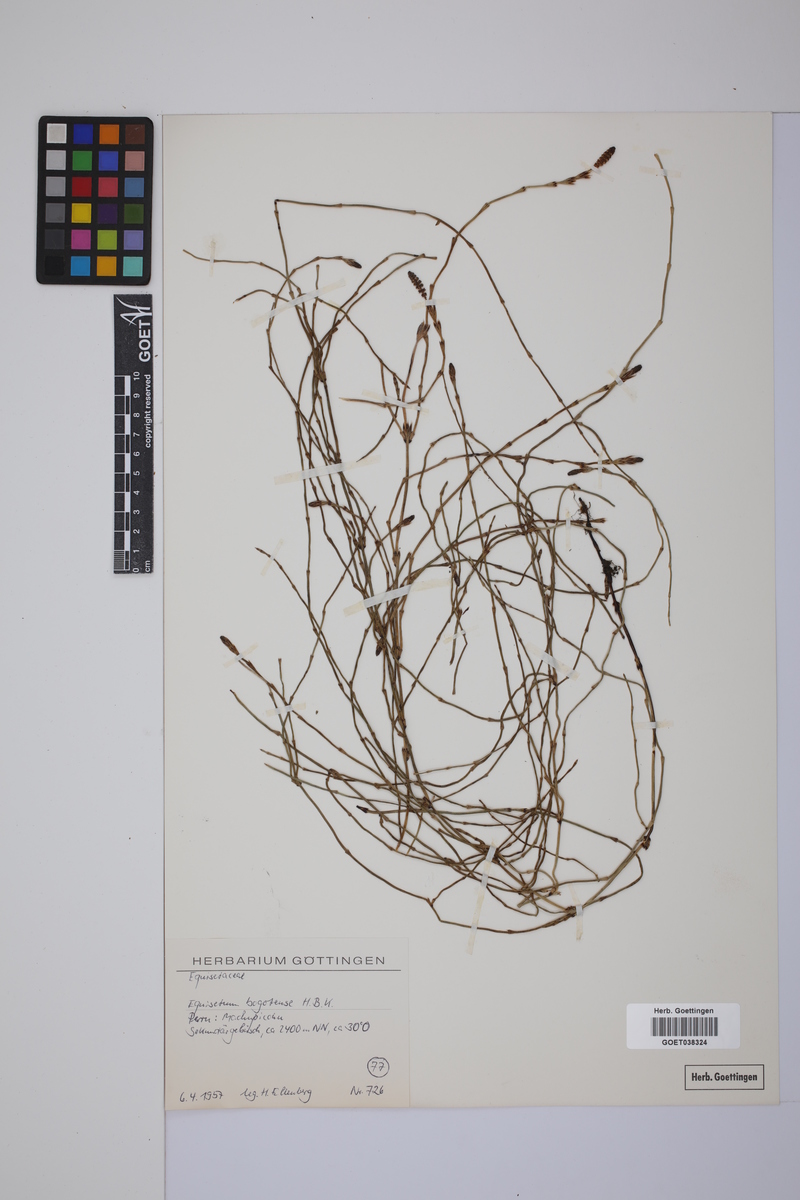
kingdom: Plantae
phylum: Tracheophyta
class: Polypodiopsida
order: Equisetales
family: Equisetaceae
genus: Equisetum
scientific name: Equisetum bogotense
